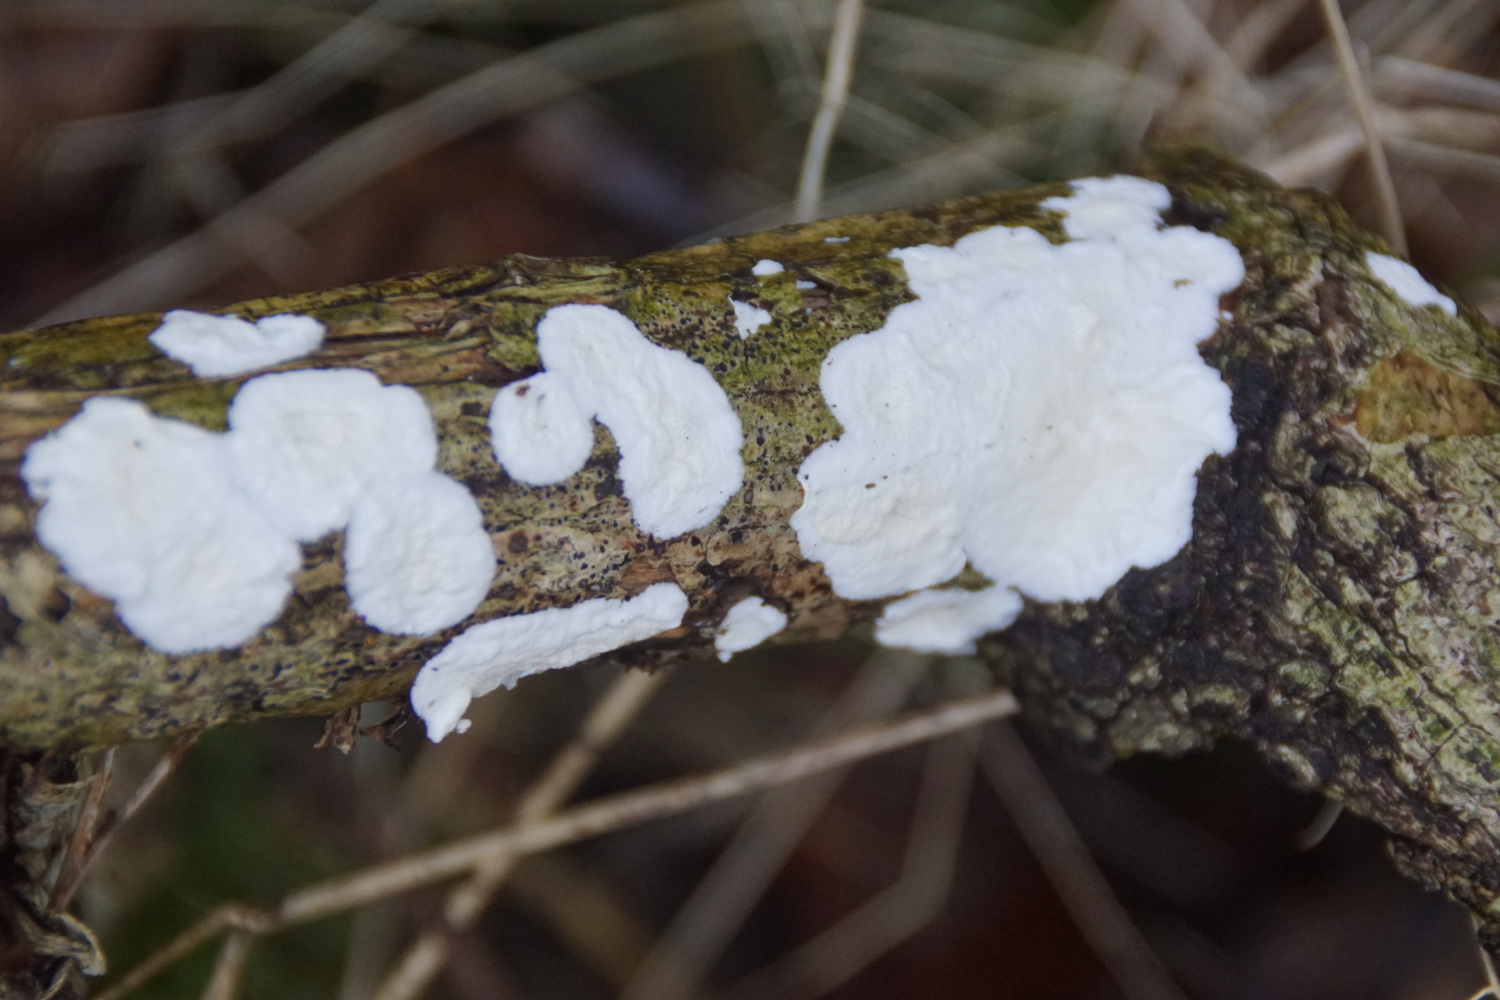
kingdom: Fungi
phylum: Basidiomycota
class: Agaricomycetes
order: Polyporales
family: Irpicaceae
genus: Byssomerulius
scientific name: Byssomerulius corium
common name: læder-åresvamp
